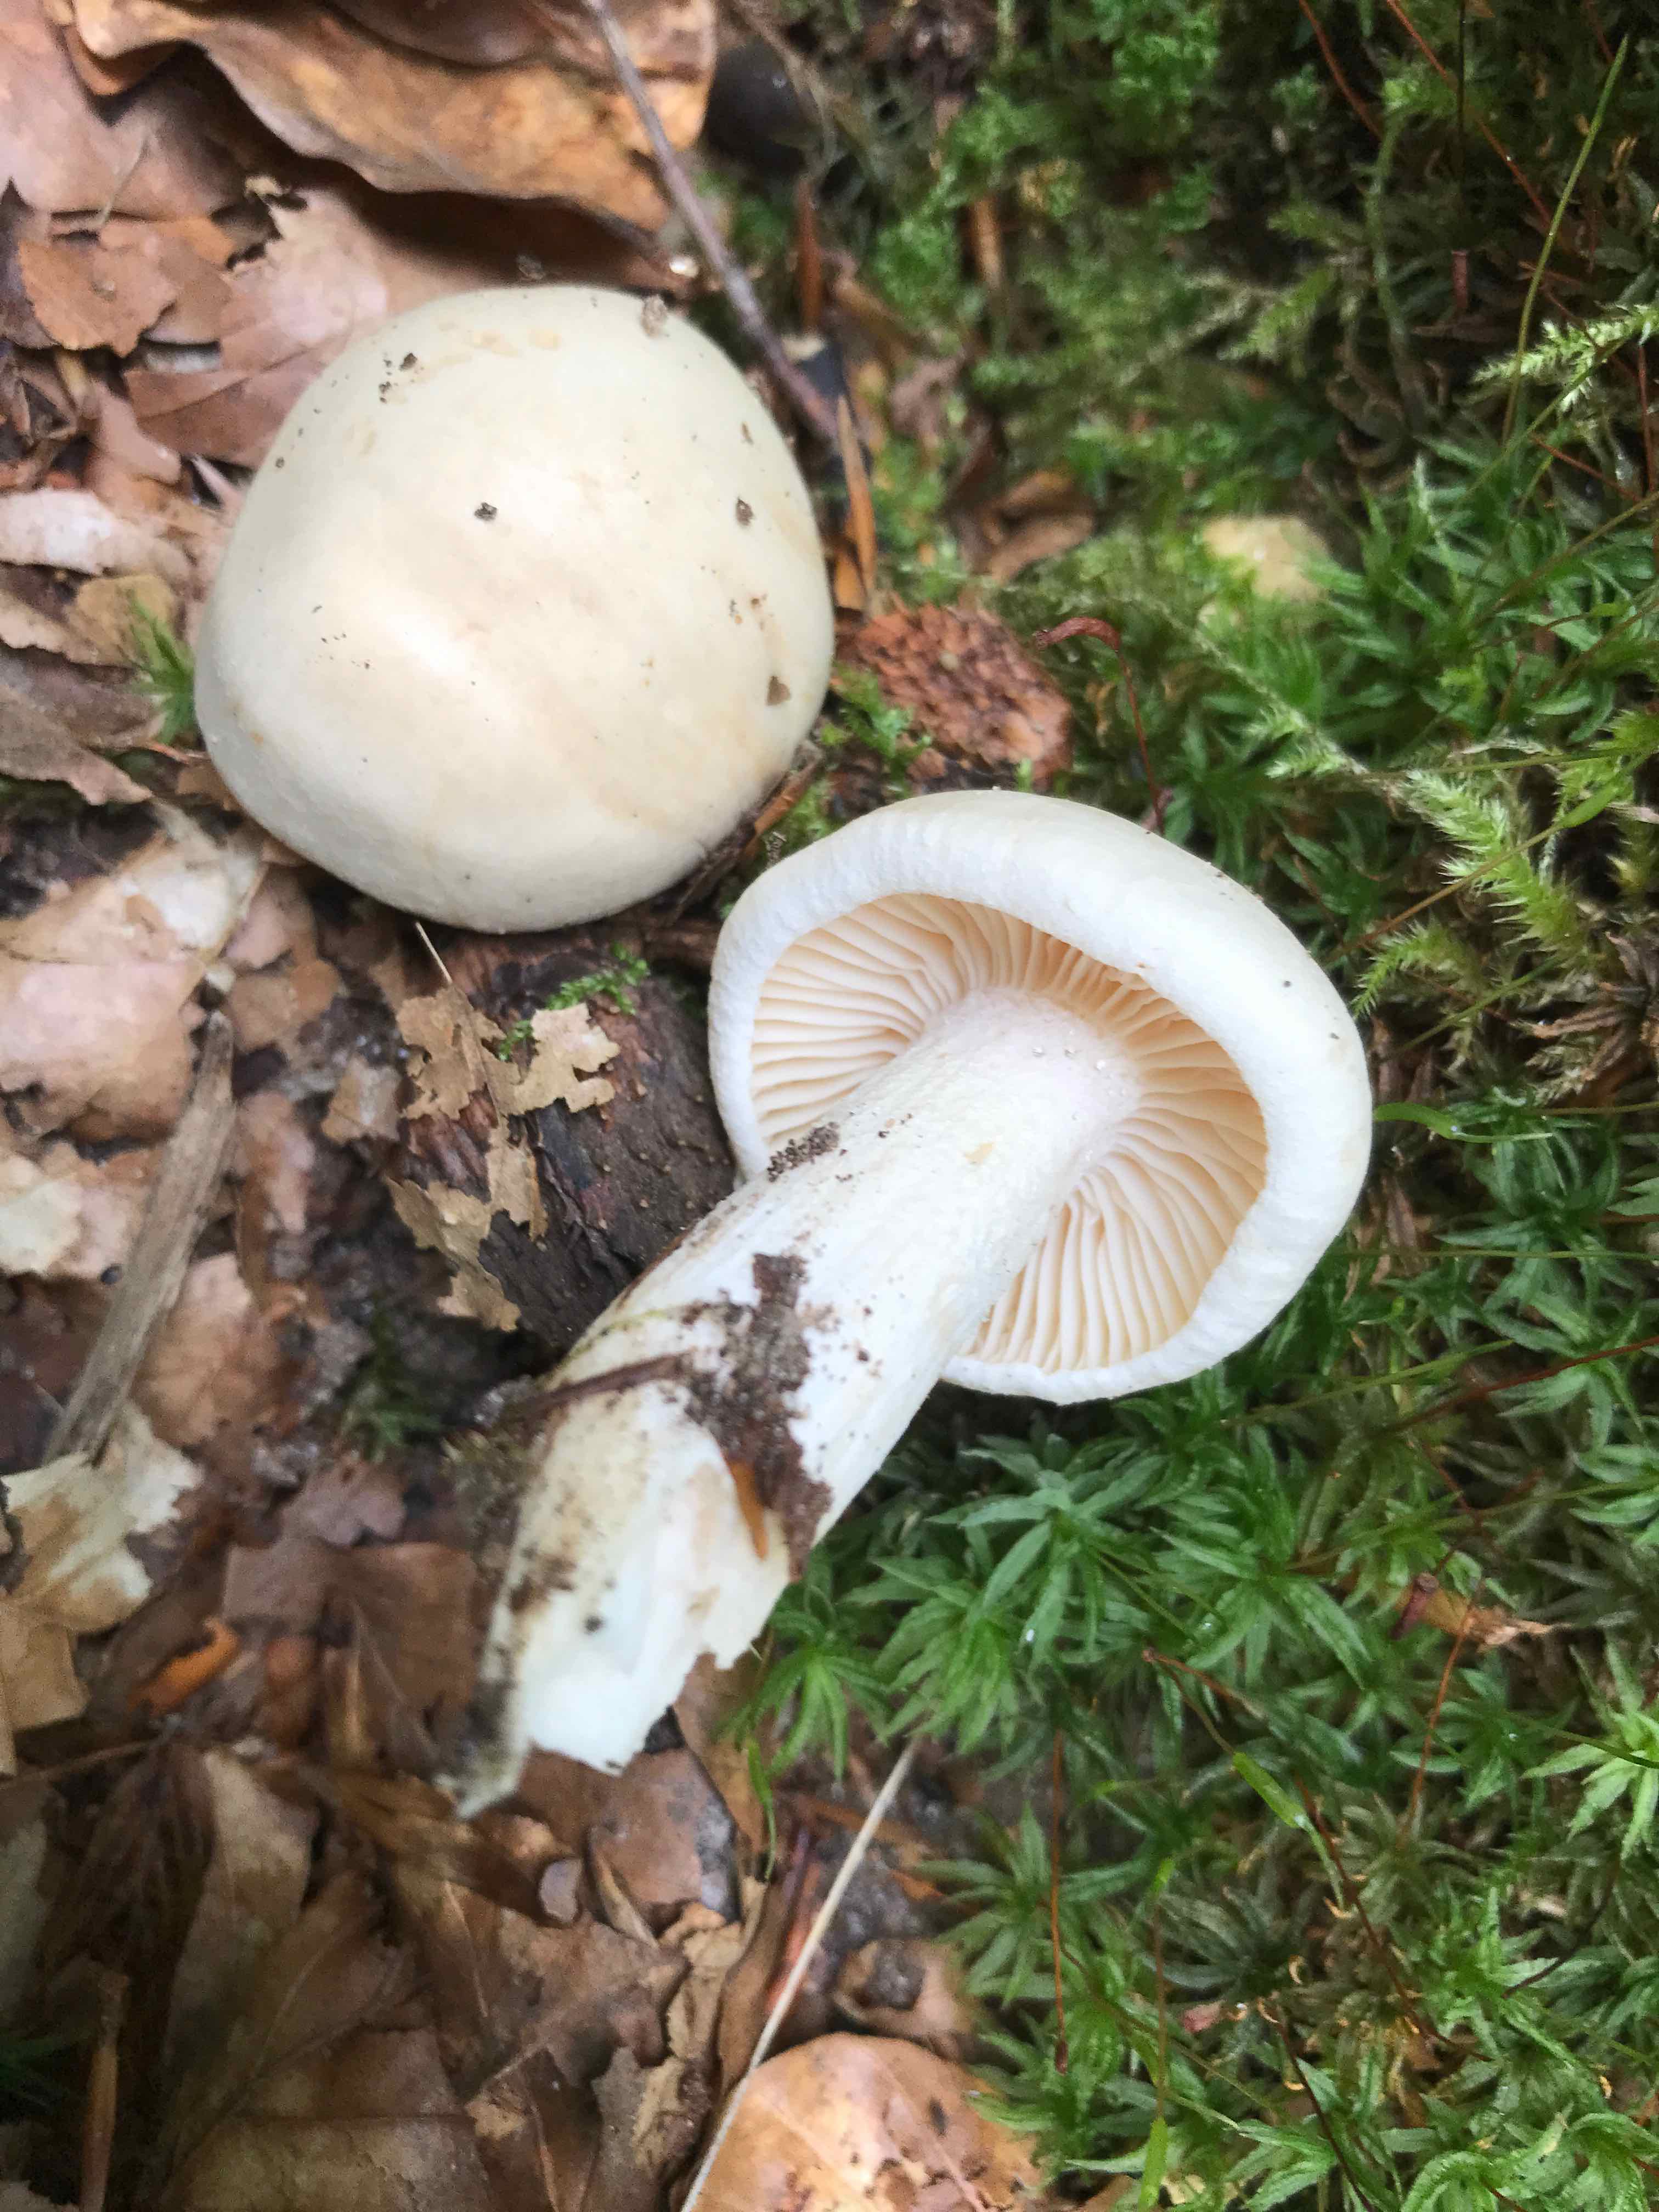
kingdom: Fungi
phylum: Basidiomycota
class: Agaricomycetes
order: Agaricales
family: Hygrophoraceae
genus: Hygrophorus
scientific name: Hygrophorus penarius
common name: spiselig sneglehat
